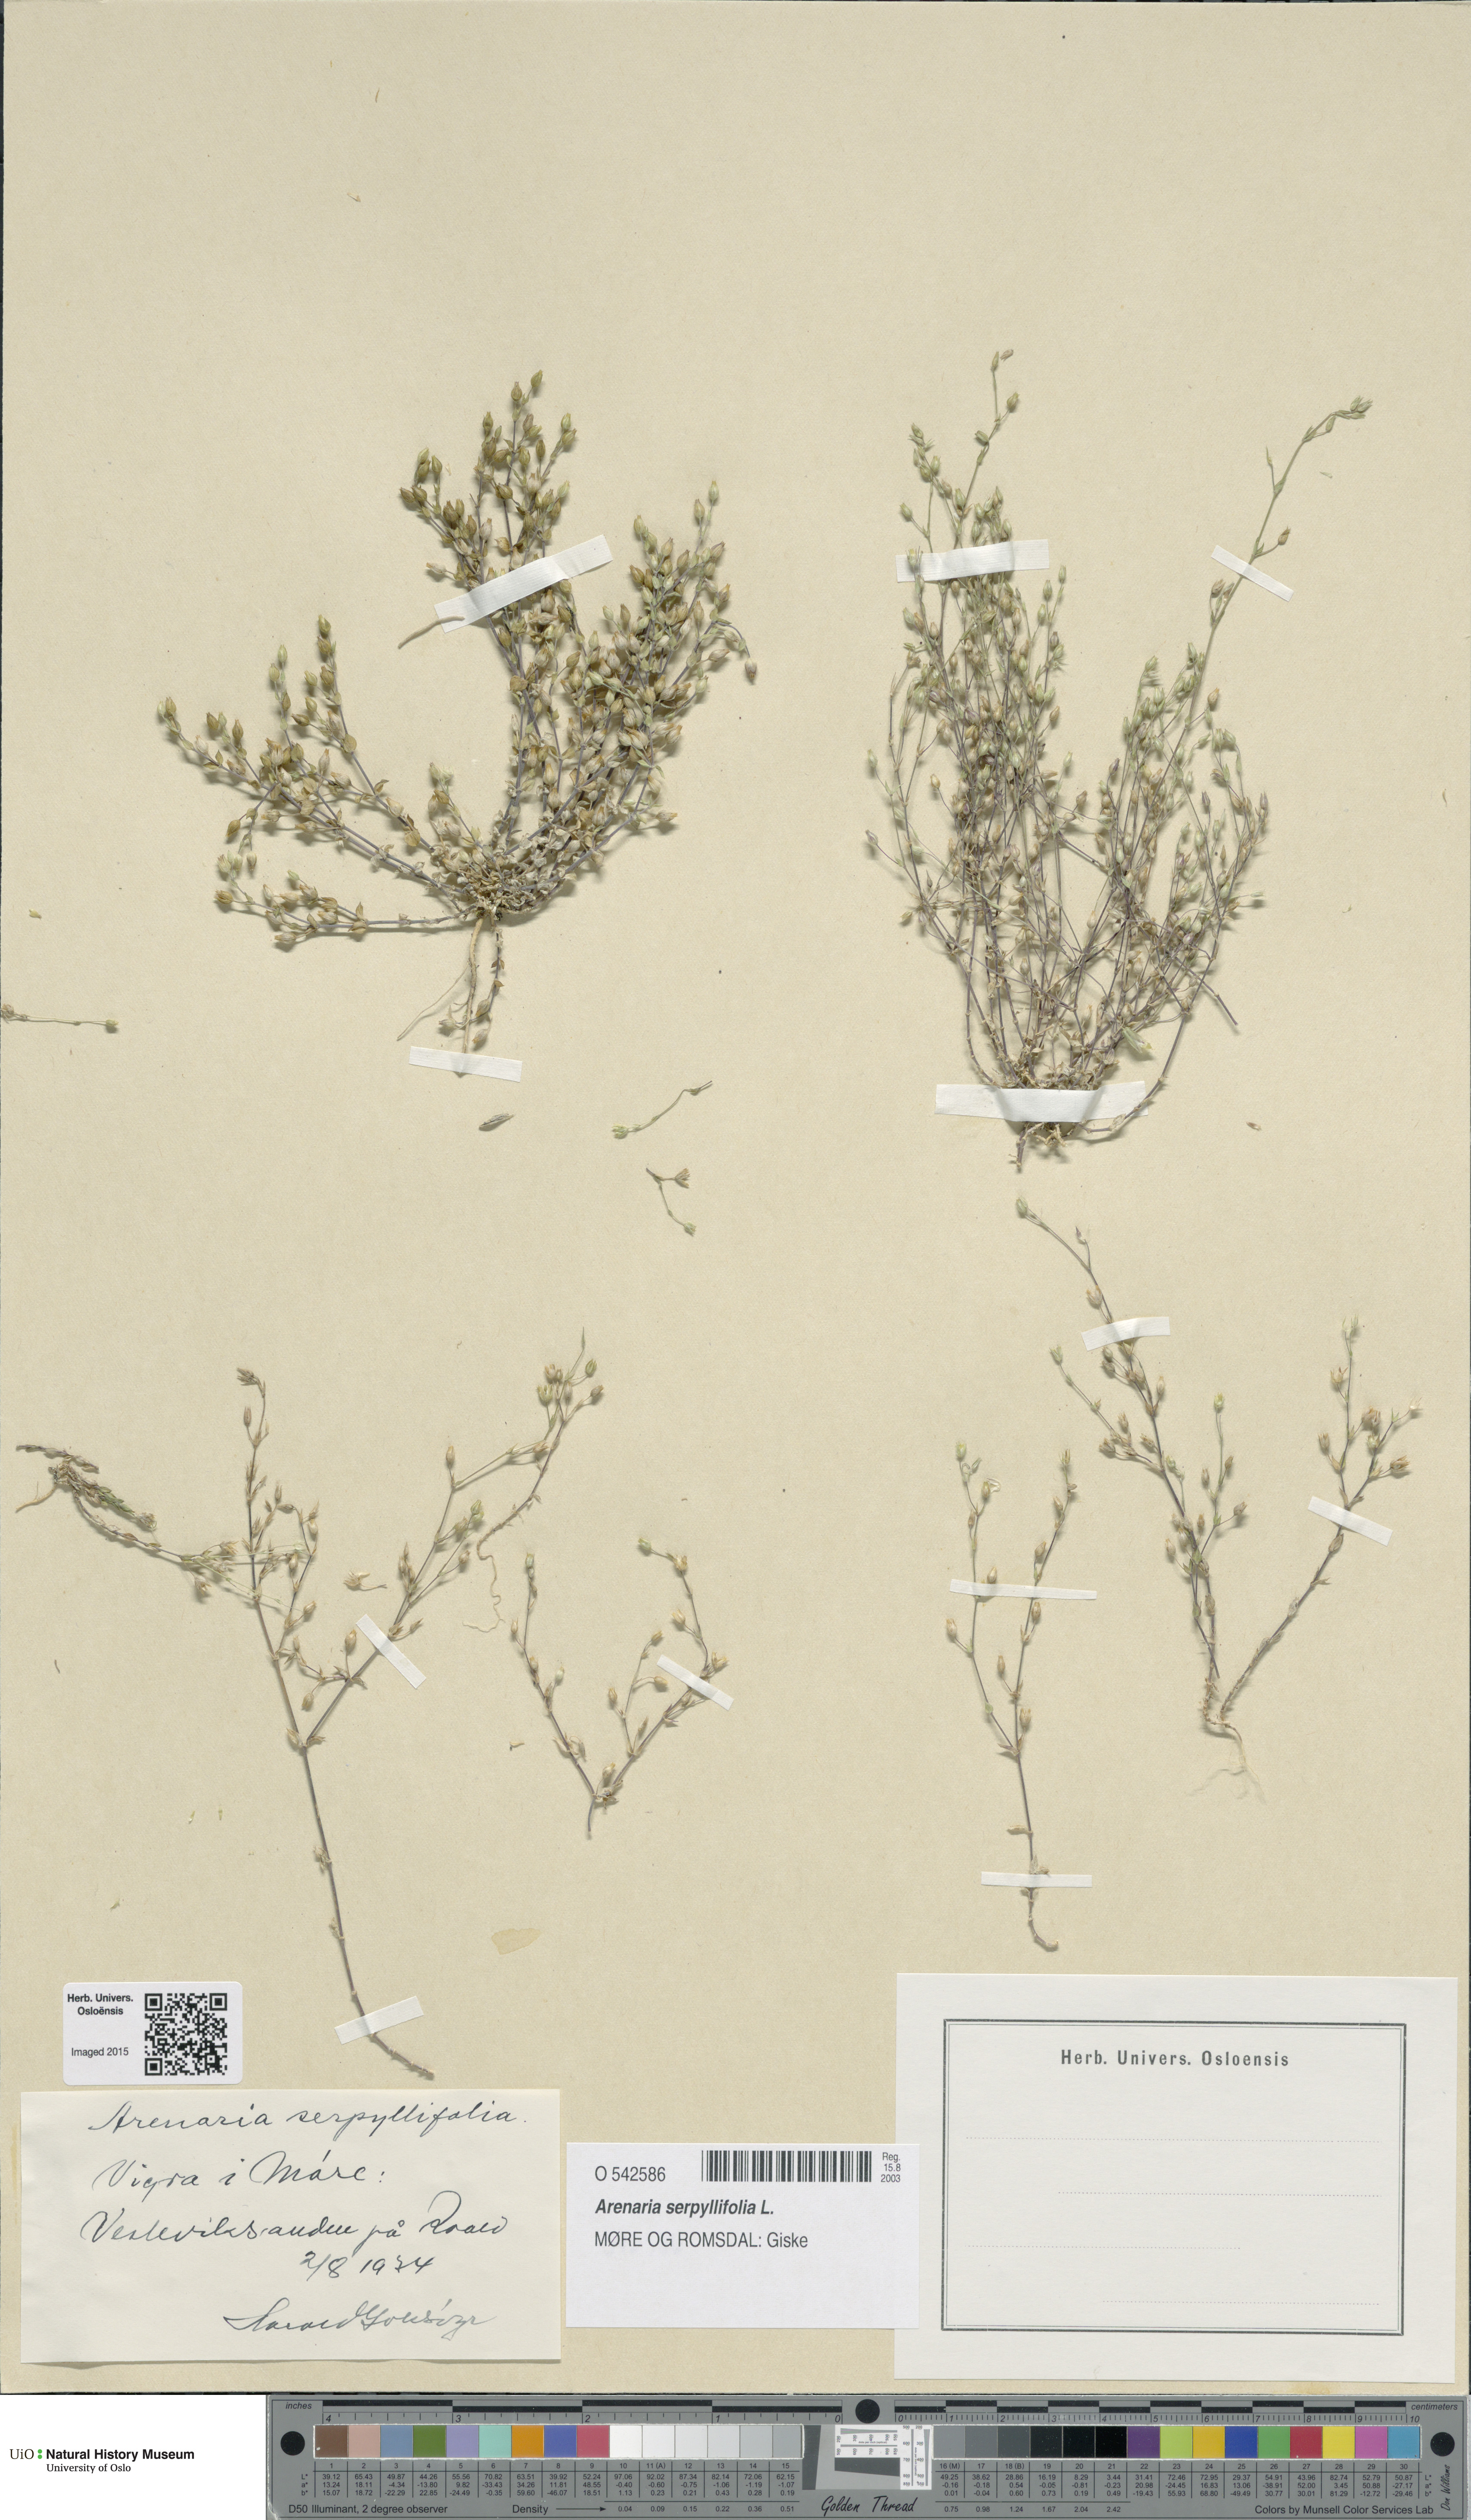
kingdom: Plantae
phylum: Tracheophyta
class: Magnoliopsida
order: Caryophyllales
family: Caryophyllaceae
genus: Arenaria
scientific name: Arenaria serpyllifolia
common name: Thyme-leaved sandwort
